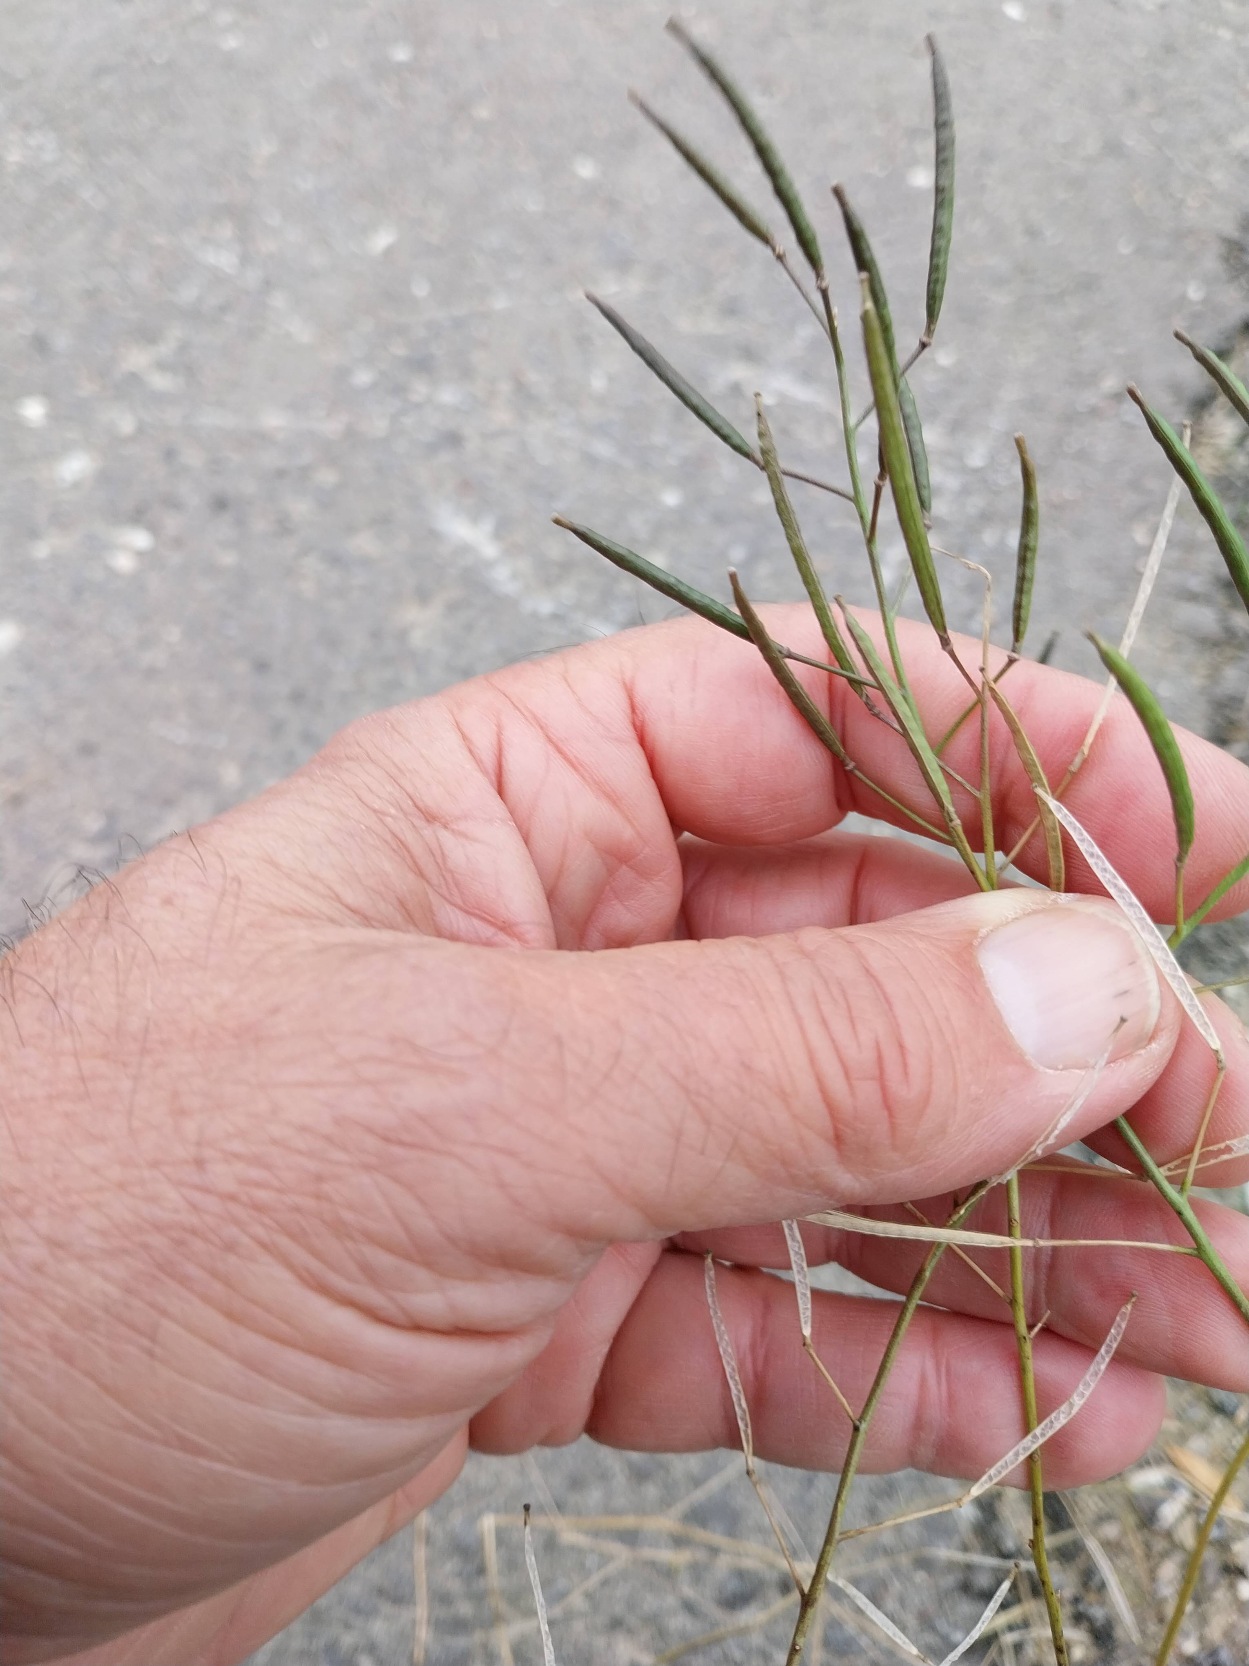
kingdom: Plantae
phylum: Tracheophyta
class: Magnoliopsida
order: Brassicales
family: Brassicaceae
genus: Diplotaxis
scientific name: Diplotaxis tenuifolia
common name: Sandsennep
